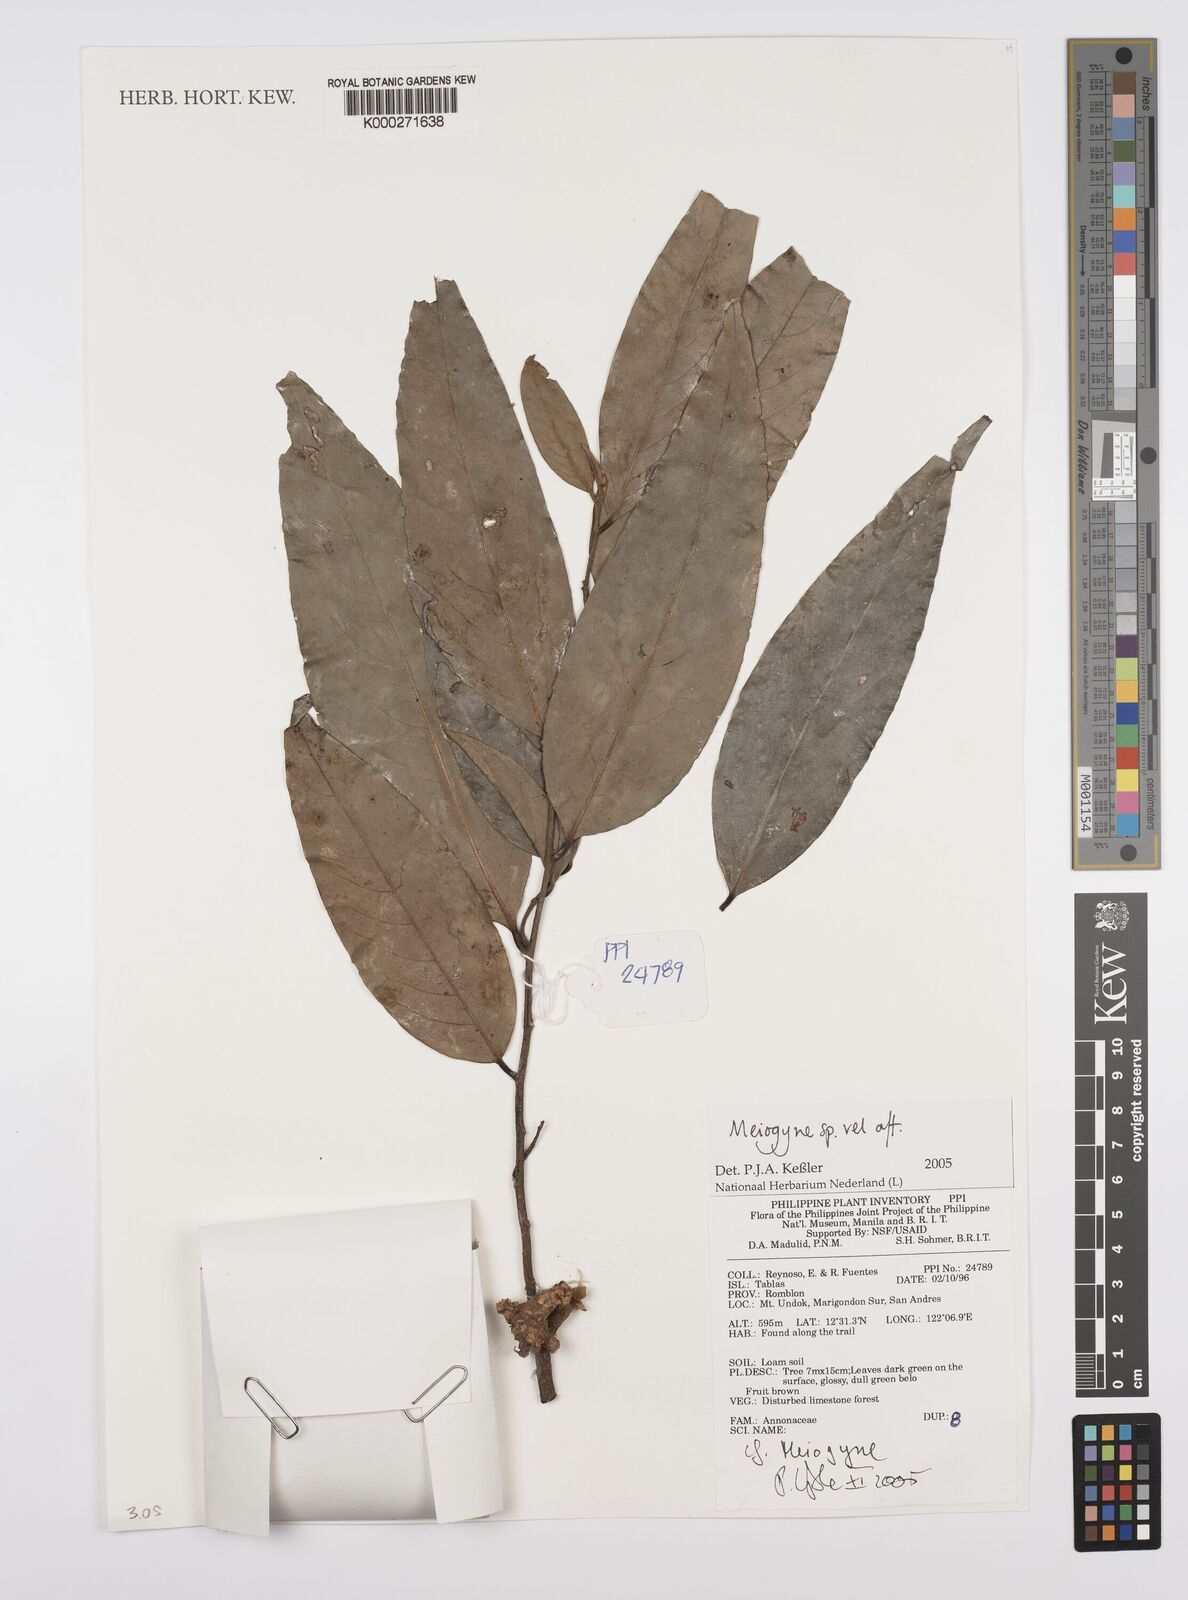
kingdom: Plantae
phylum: Tracheophyta
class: Magnoliopsida
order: Magnoliales
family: Annonaceae
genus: Meiogyne
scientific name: Meiogyne
